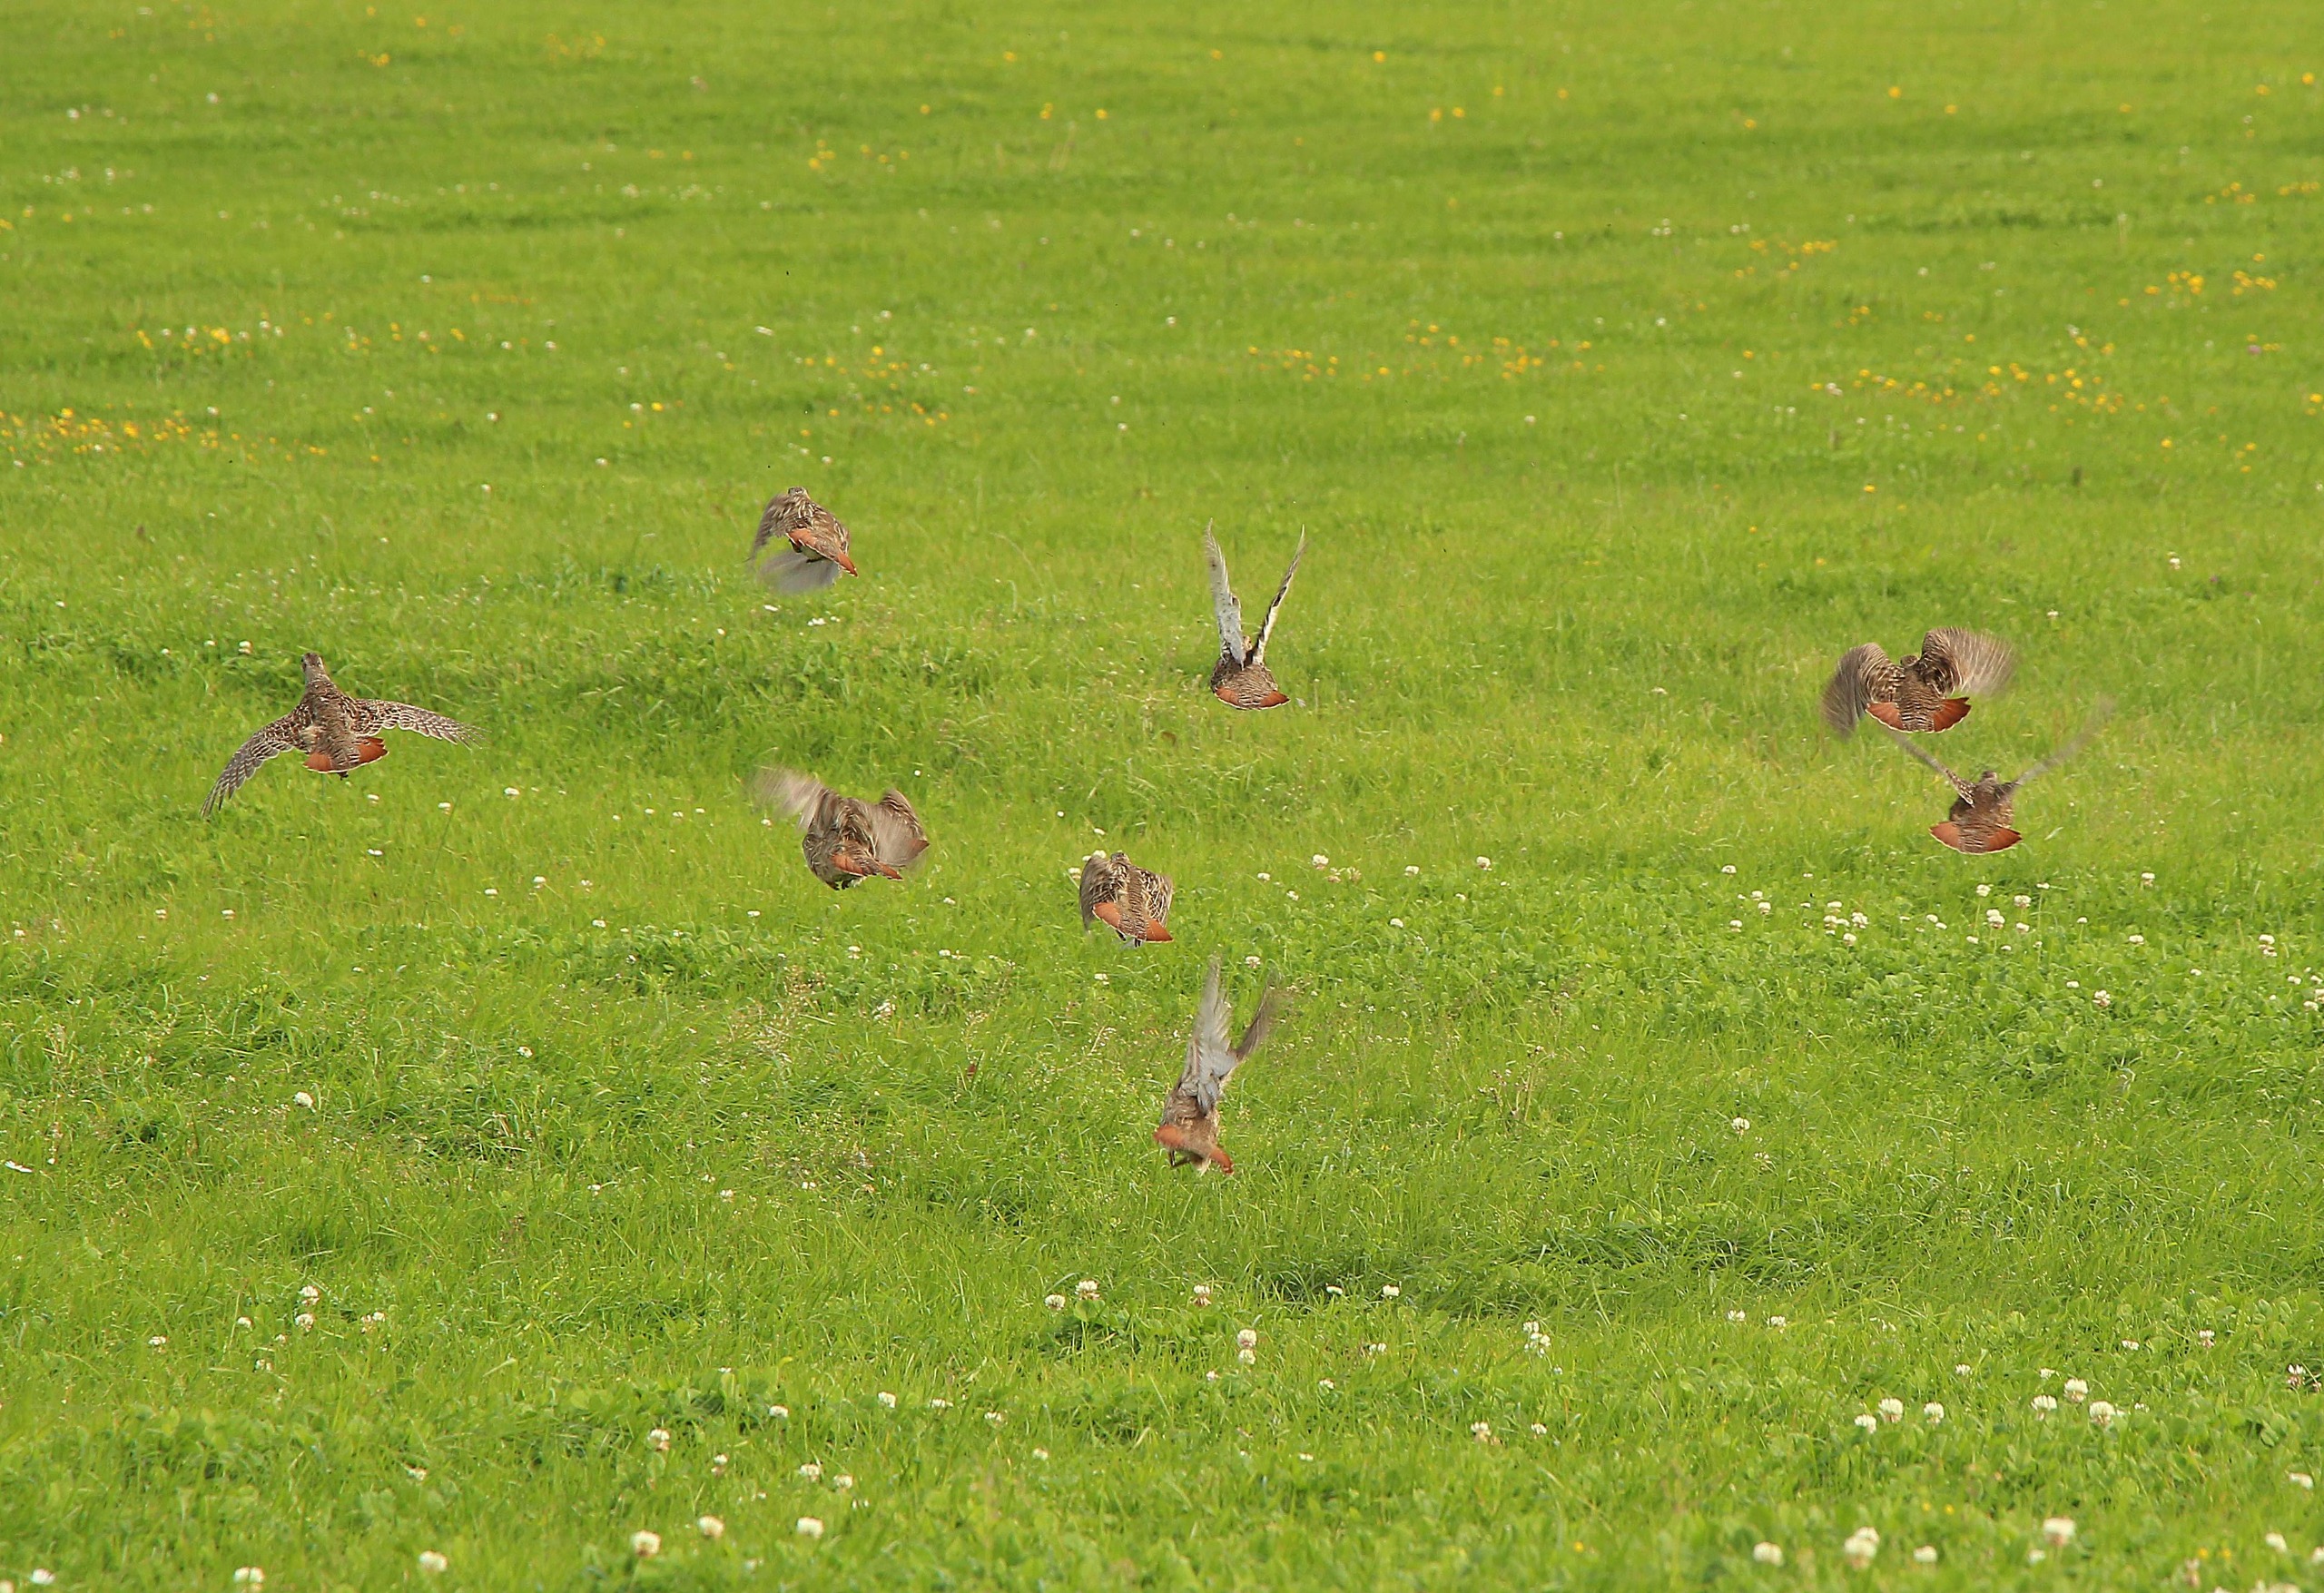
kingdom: Animalia
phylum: Chordata
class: Aves
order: Galliformes
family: Phasianidae
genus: Perdix
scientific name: Perdix perdix
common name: Agerhøne
